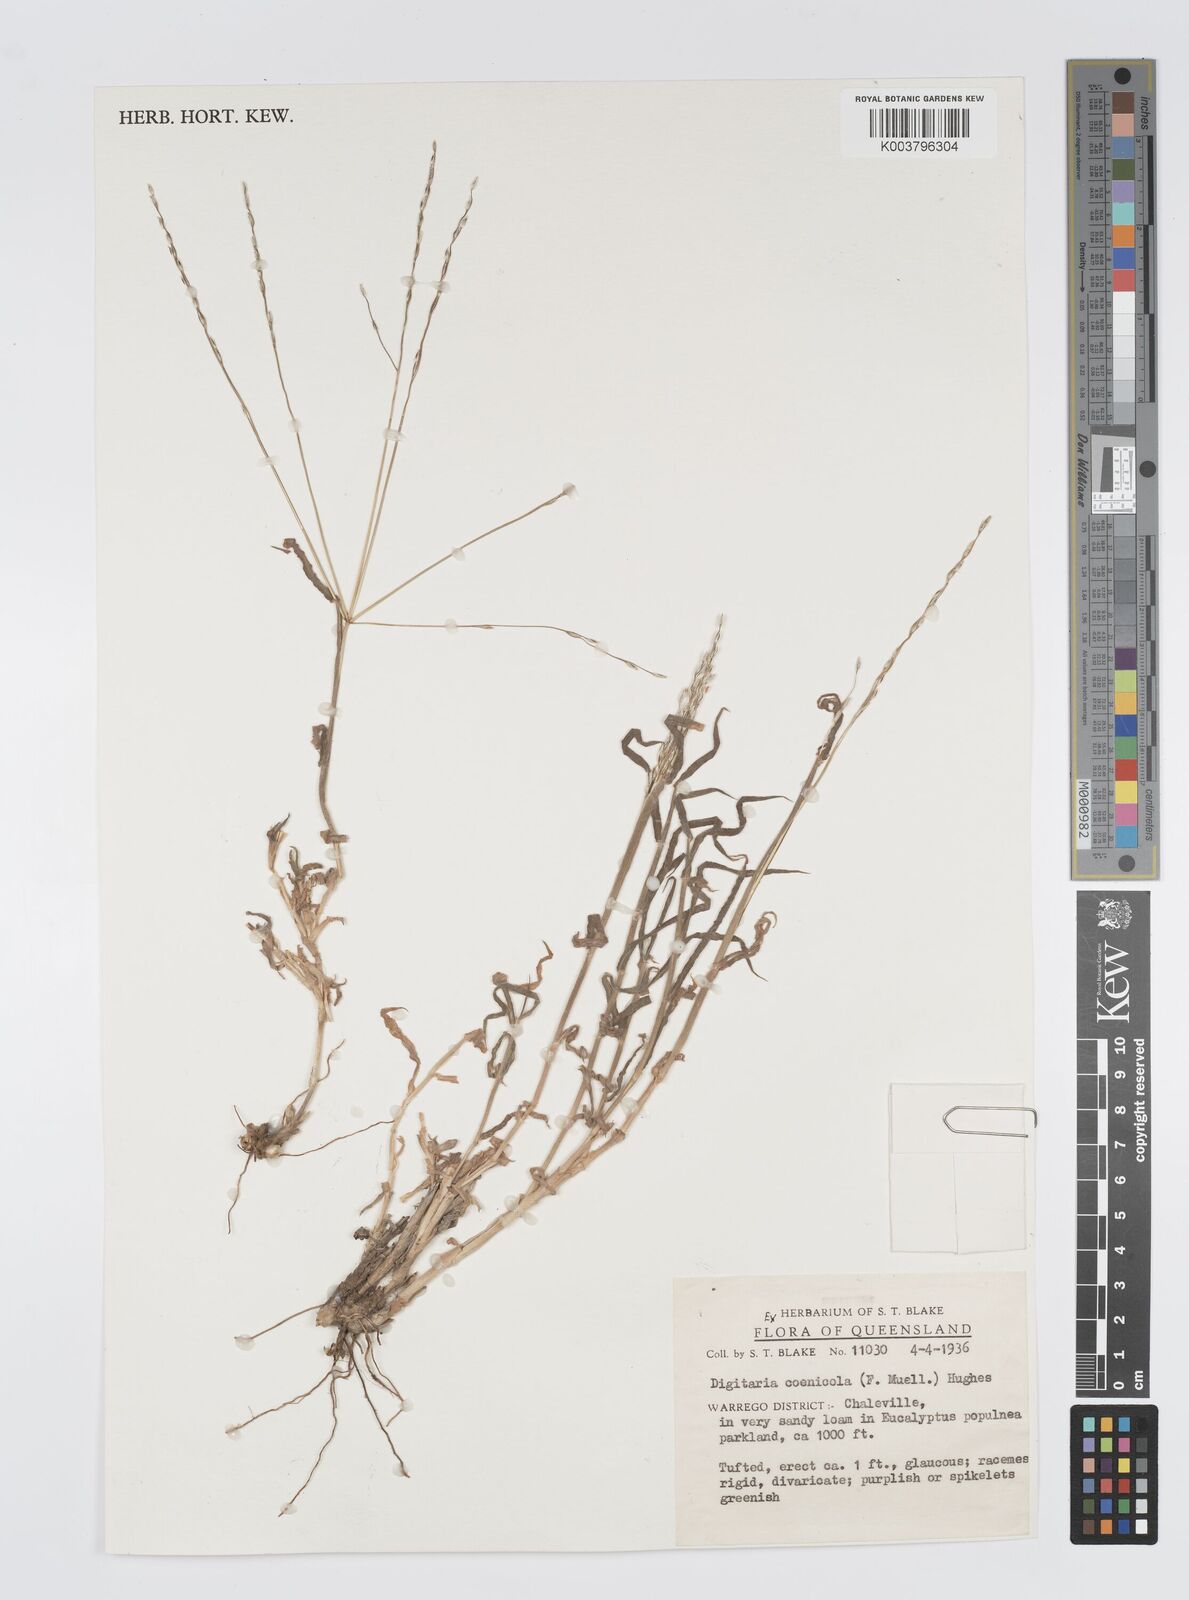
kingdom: Plantae
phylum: Tracheophyta
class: Liliopsida
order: Poales
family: Poaceae
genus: Digitaria
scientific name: Digitaria coenicola
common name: Kanta grass
